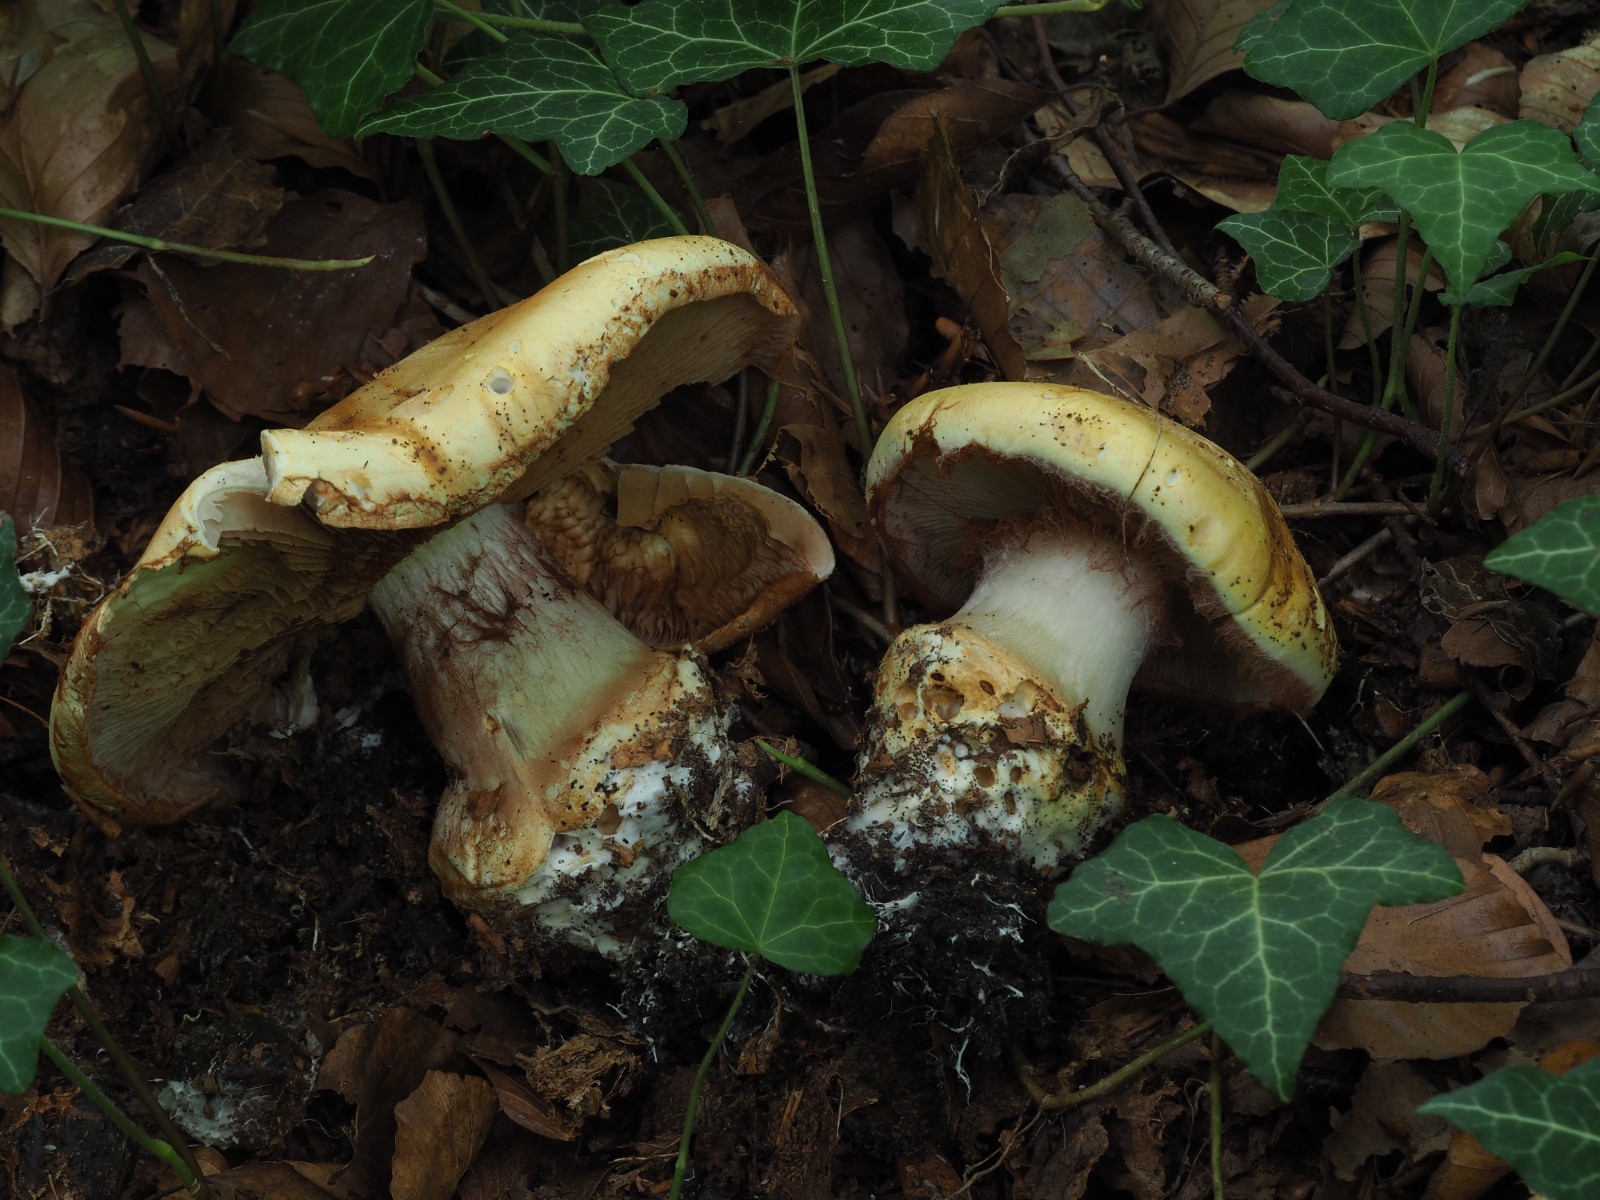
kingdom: Fungi
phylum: Basidiomycota
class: Agaricomycetes
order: Agaricales
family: Cortinariaceae
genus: Phlegmacium
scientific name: Phlegmacium caesiocortinatum
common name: rundsporet slørhat
